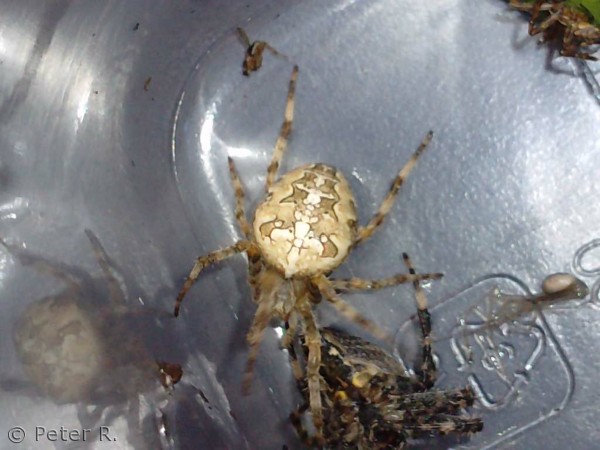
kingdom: Animalia
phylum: Arthropoda
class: Arachnida
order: Araneae
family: Araneidae
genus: Araneus
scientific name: Araneus diadematus
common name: Korsedderkop
